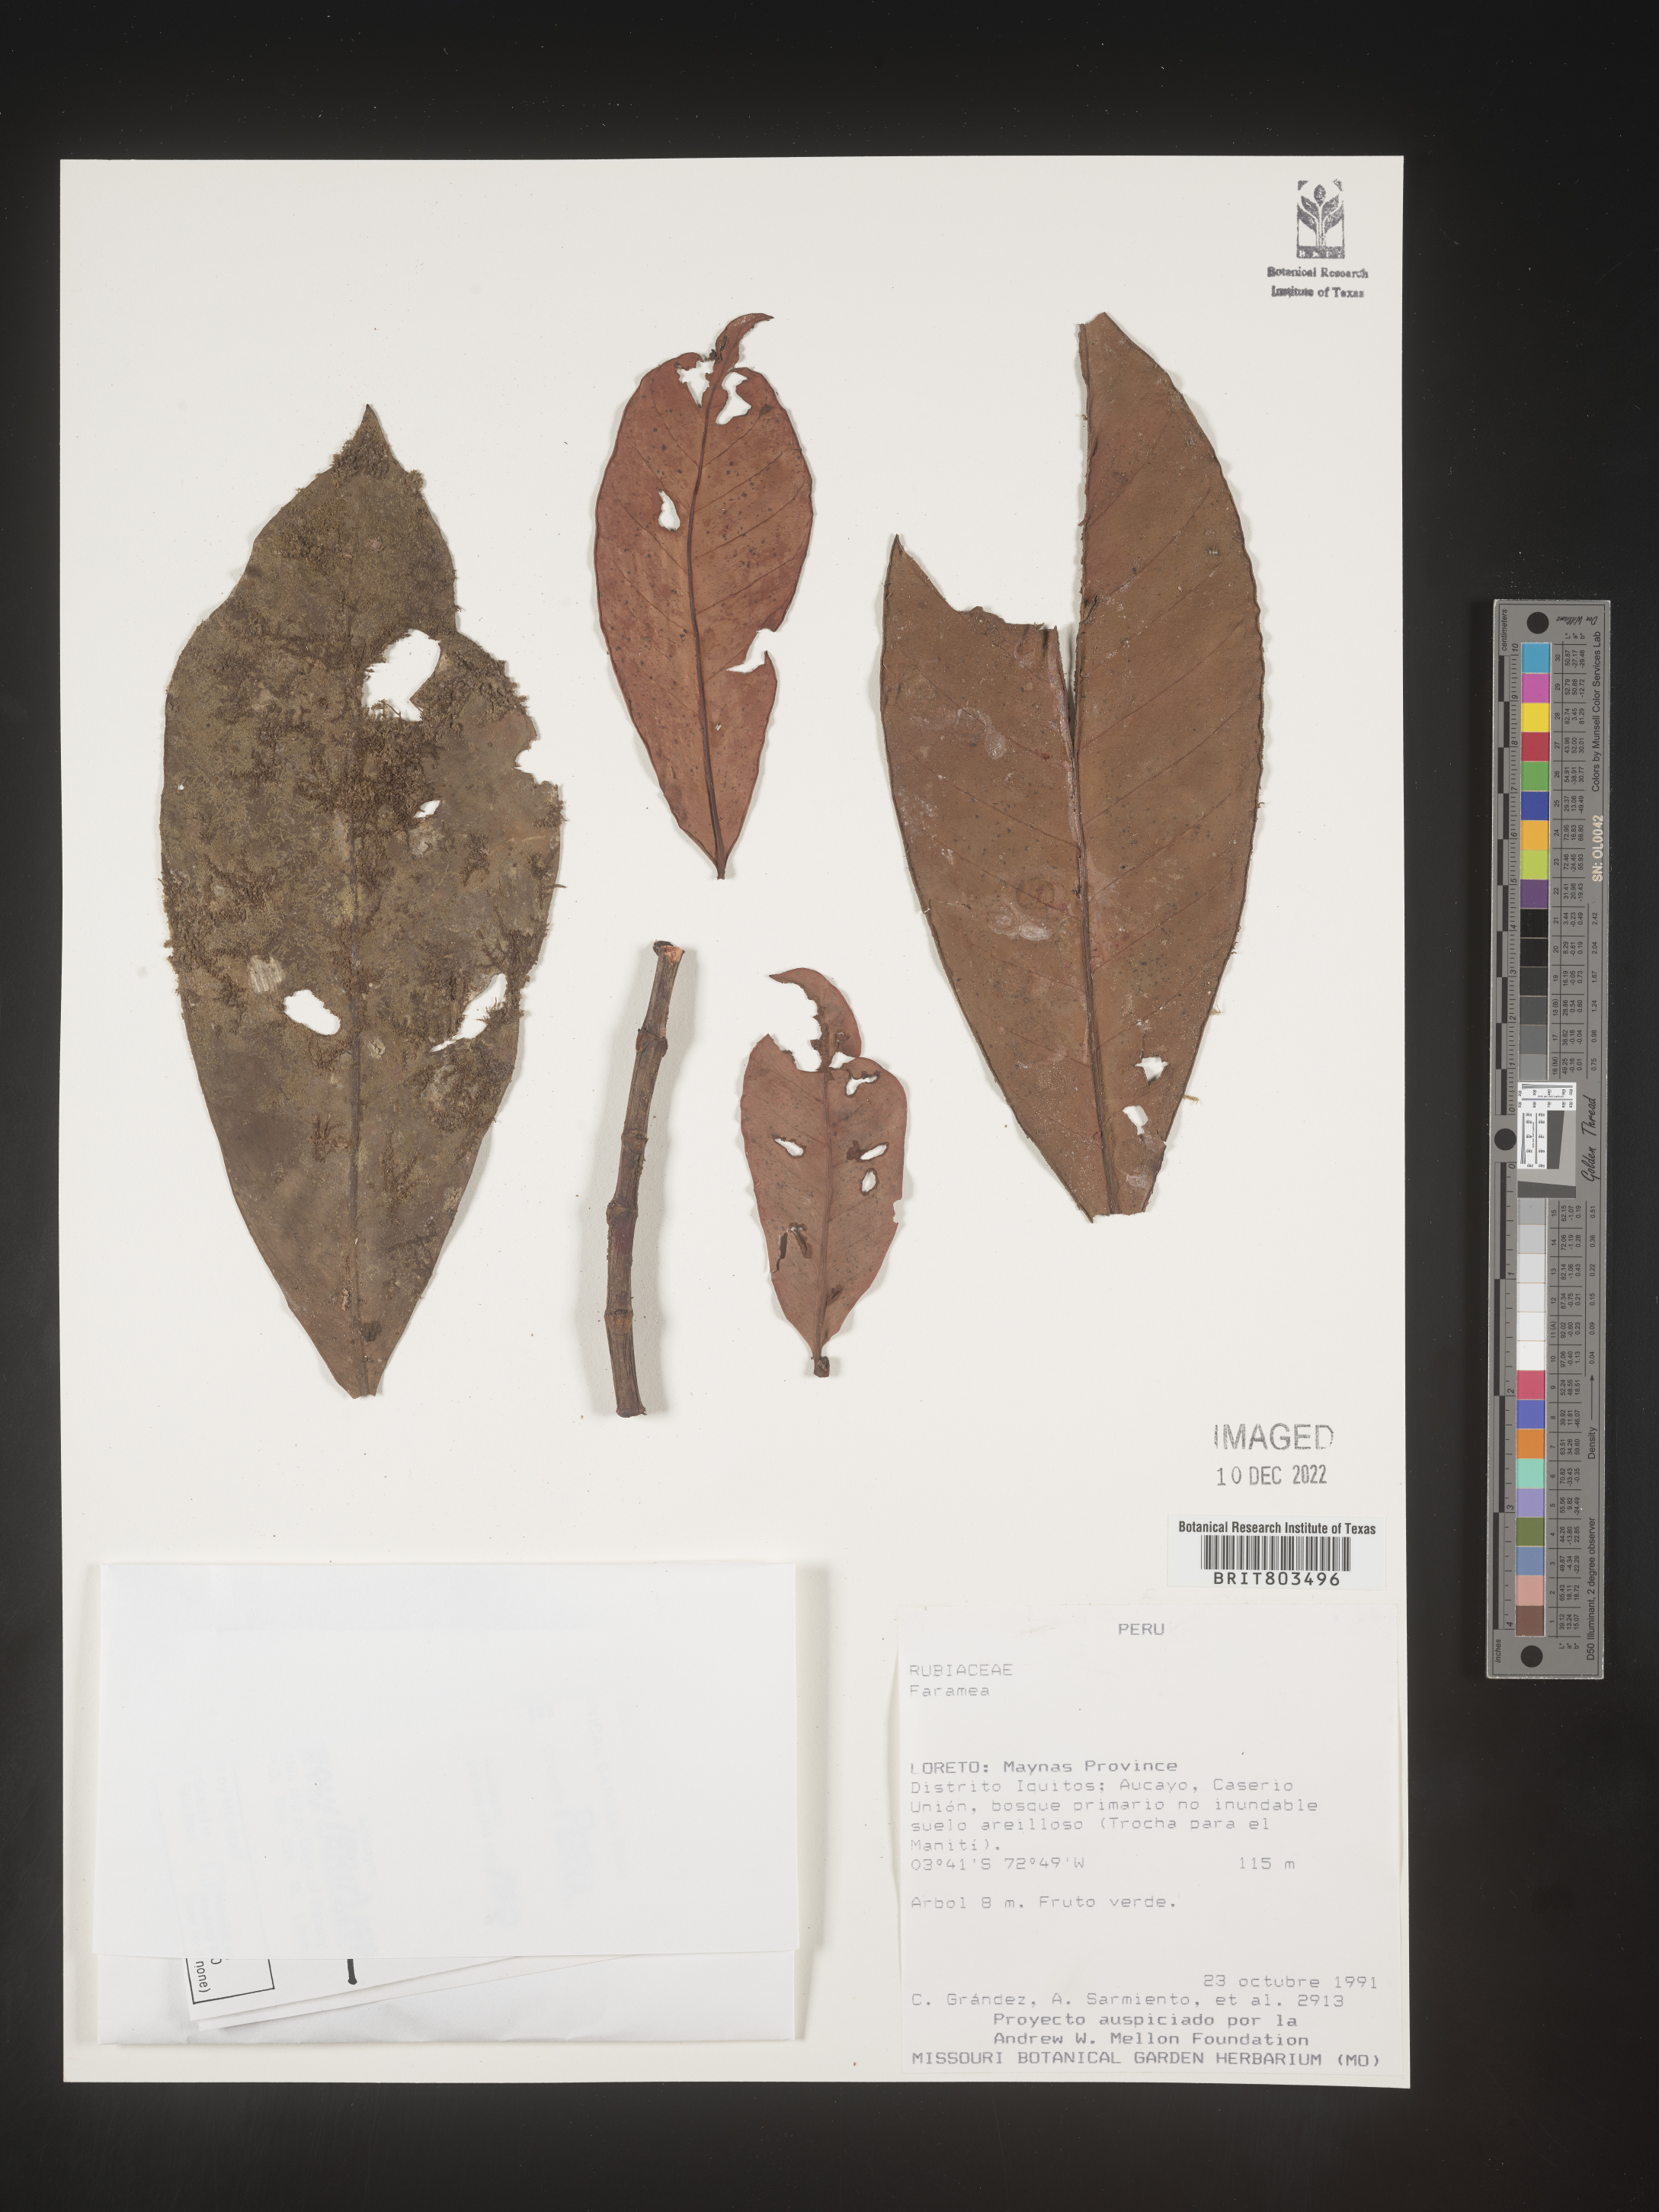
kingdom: Plantae
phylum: Tracheophyta
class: Magnoliopsida
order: Malpighiales
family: Clusiaceae
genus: Tovomita
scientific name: Tovomita
